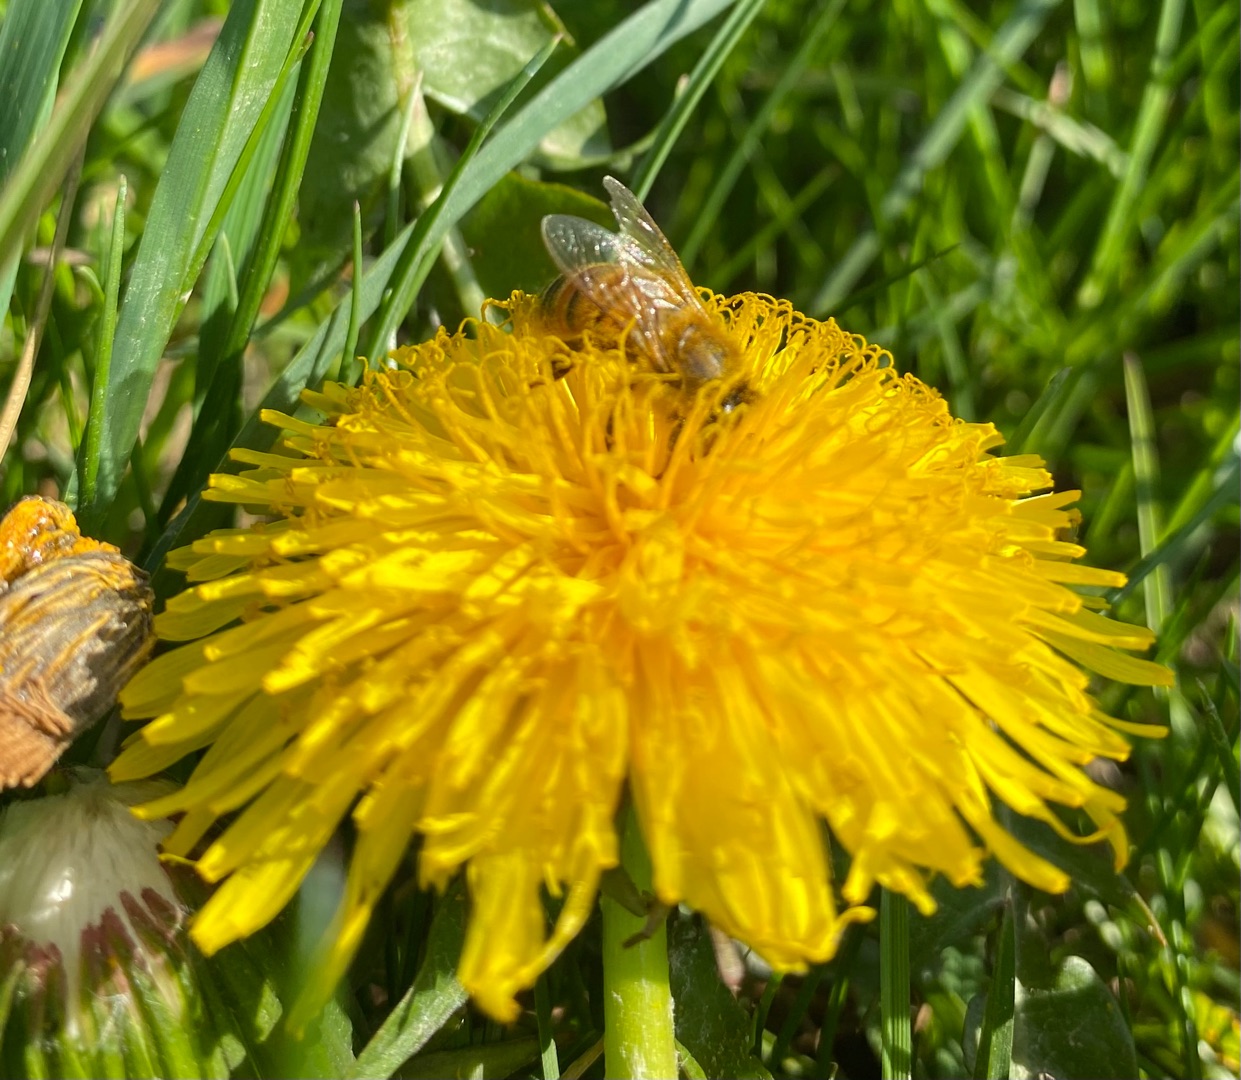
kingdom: Animalia
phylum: Arthropoda
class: Insecta
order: Hymenoptera
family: Apidae
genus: Apis
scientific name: Apis mellifera
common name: Honningbi
